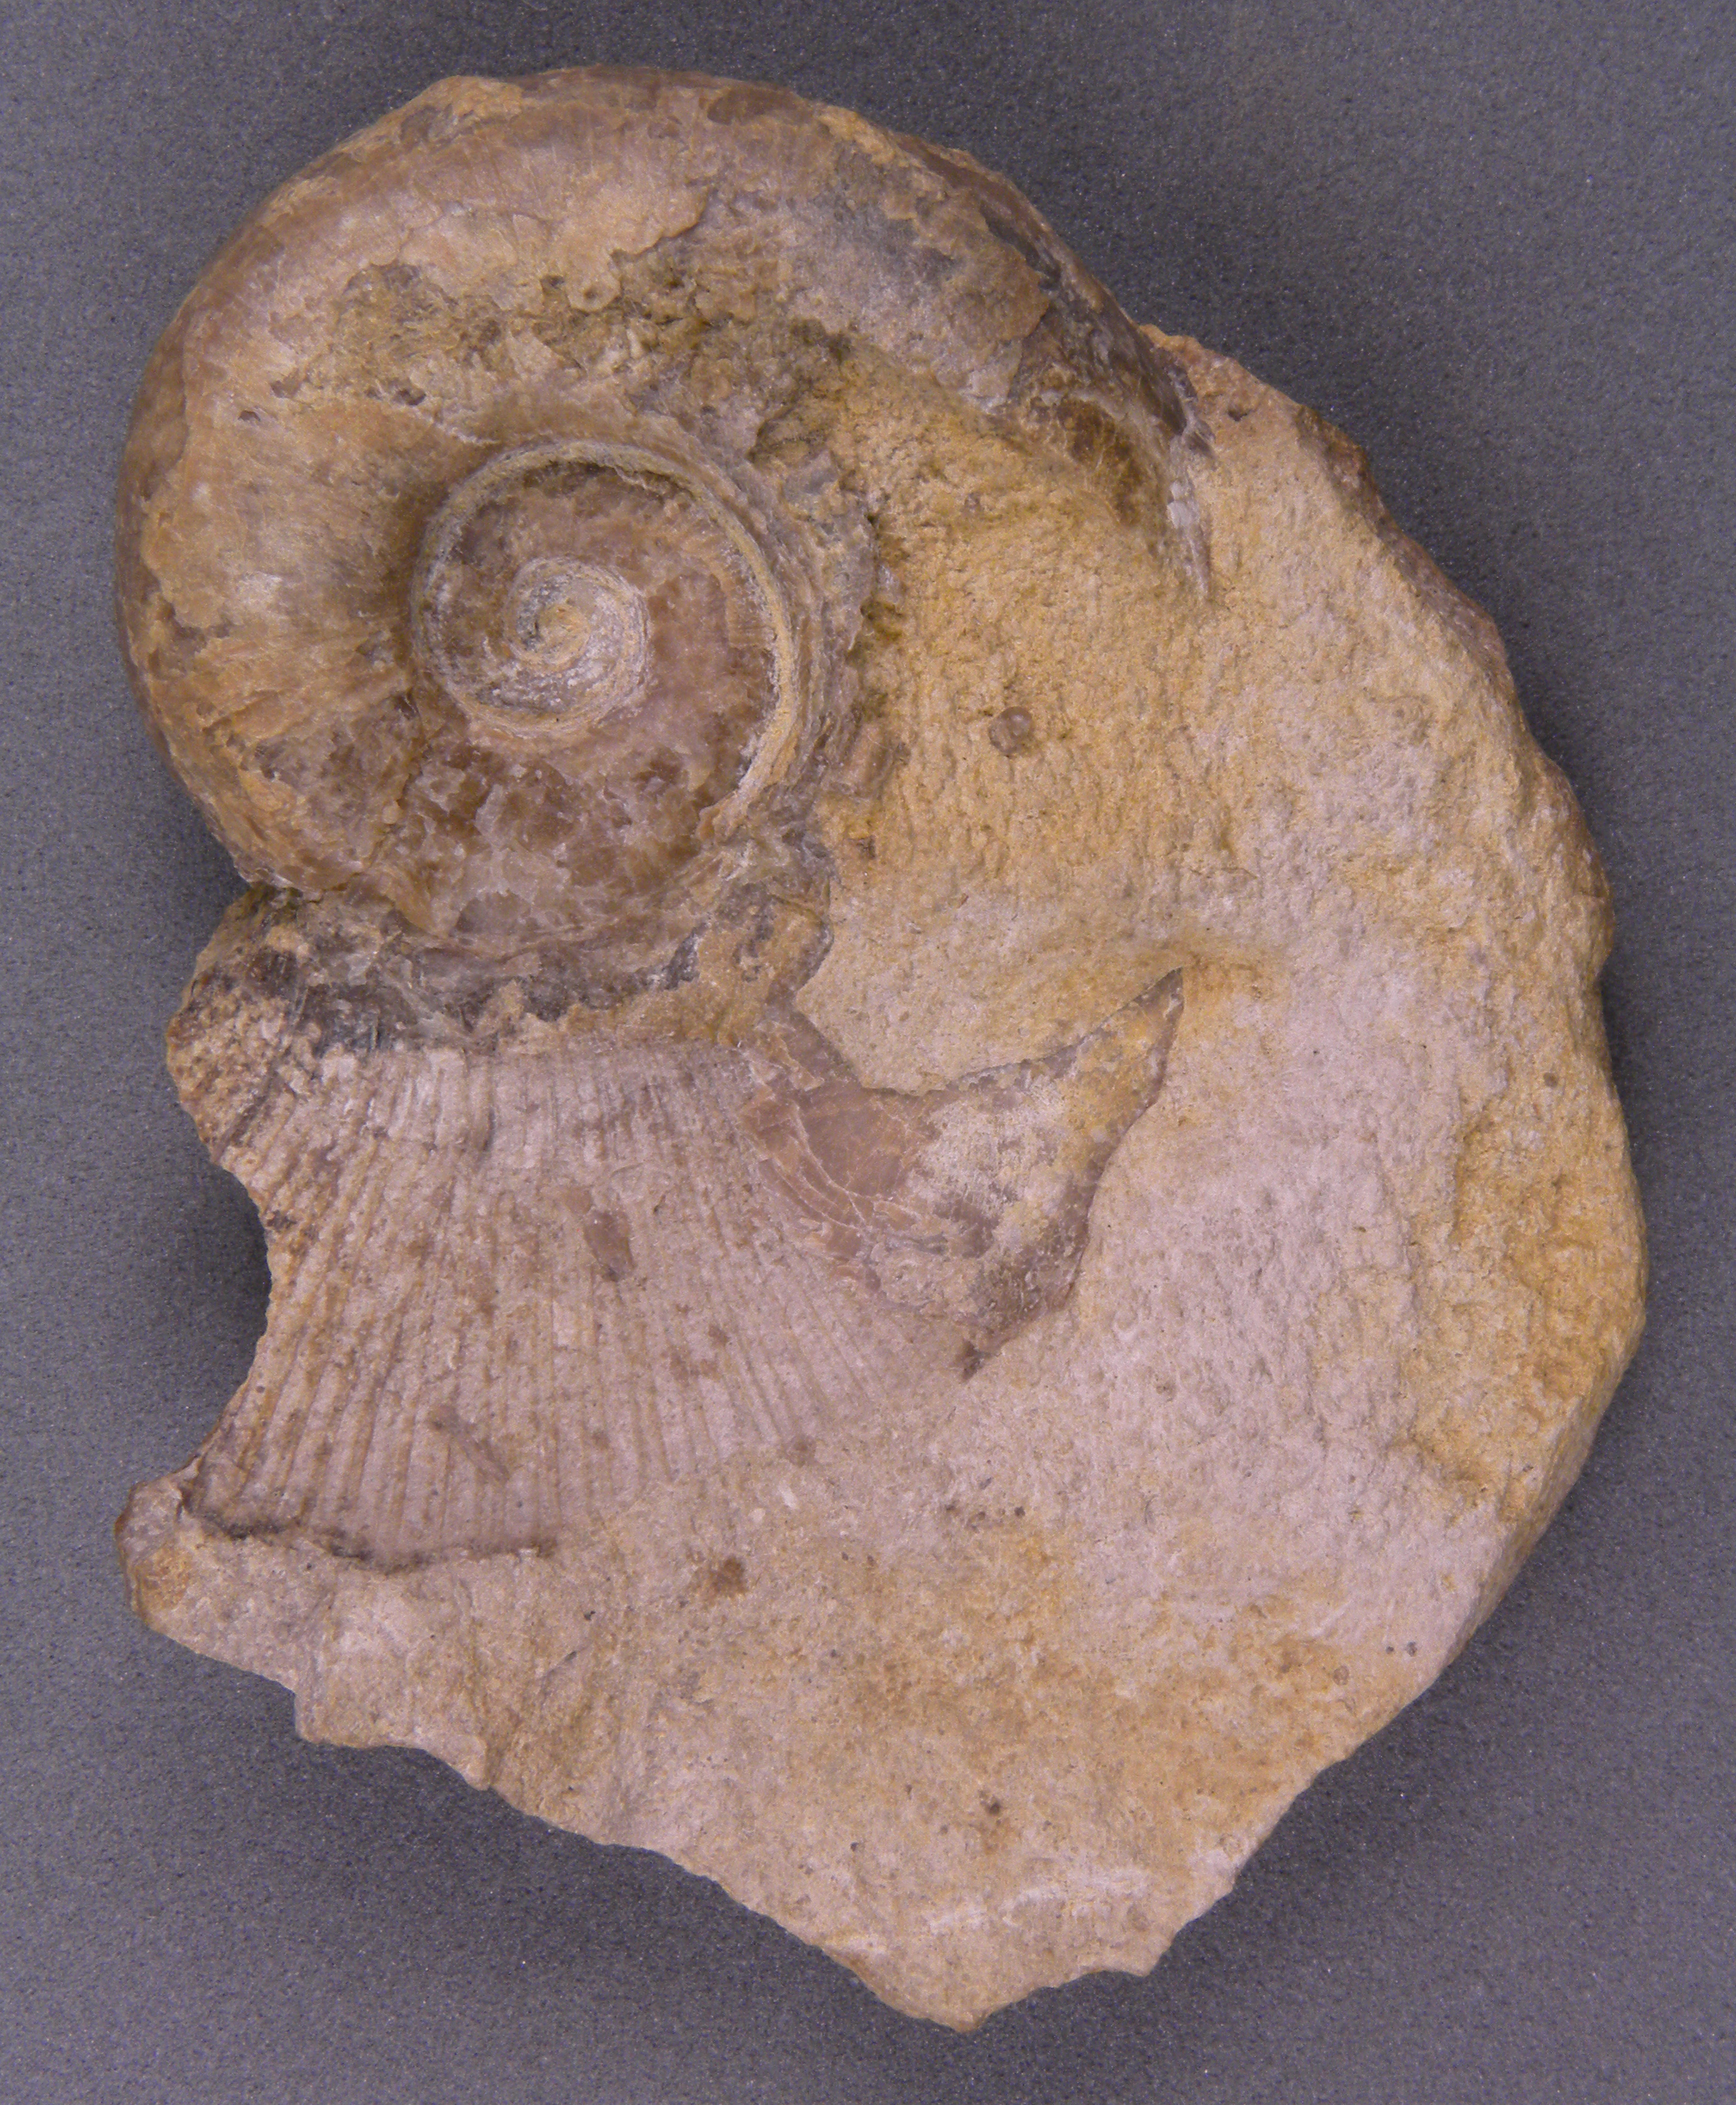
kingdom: Animalia
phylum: Mollusca
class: Cephalopoda
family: Lytoceratidae
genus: Lytoceras
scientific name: Lytoceras
